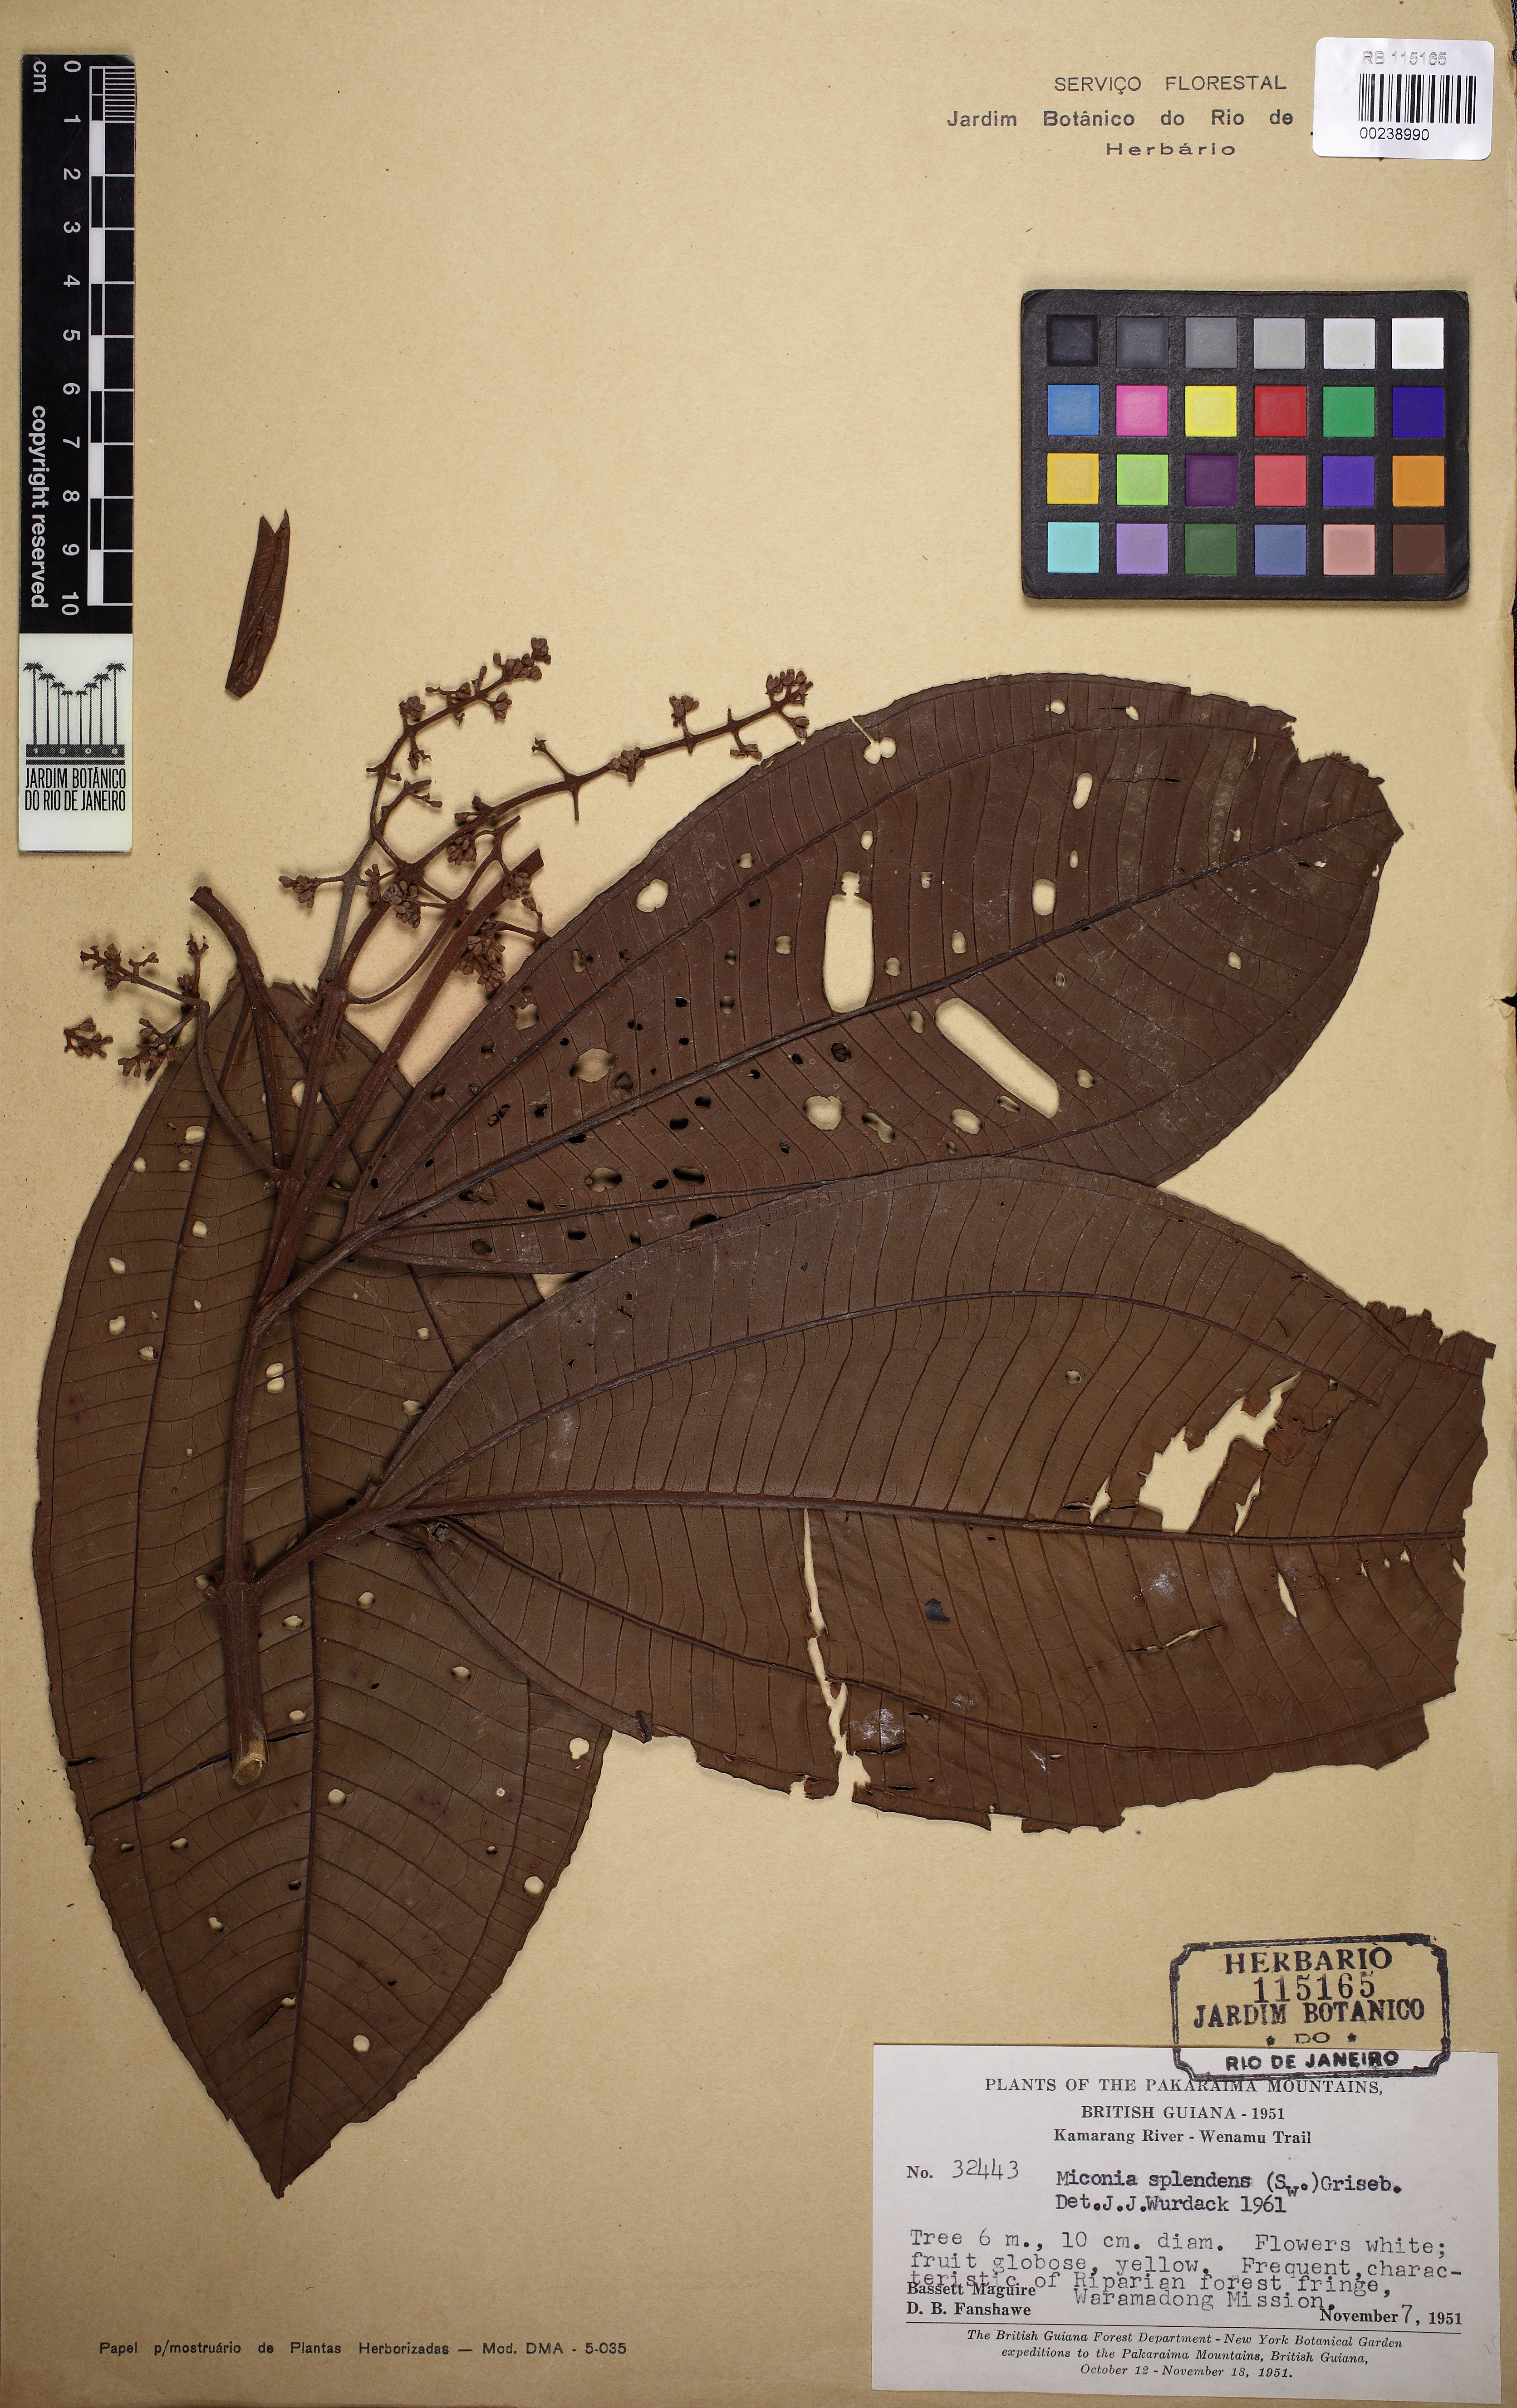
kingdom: Plantae
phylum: Tracheophyta
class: Magnoliopsida
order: Myrtales
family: Melastomataceae
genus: Miconia
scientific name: Miconia splendens
